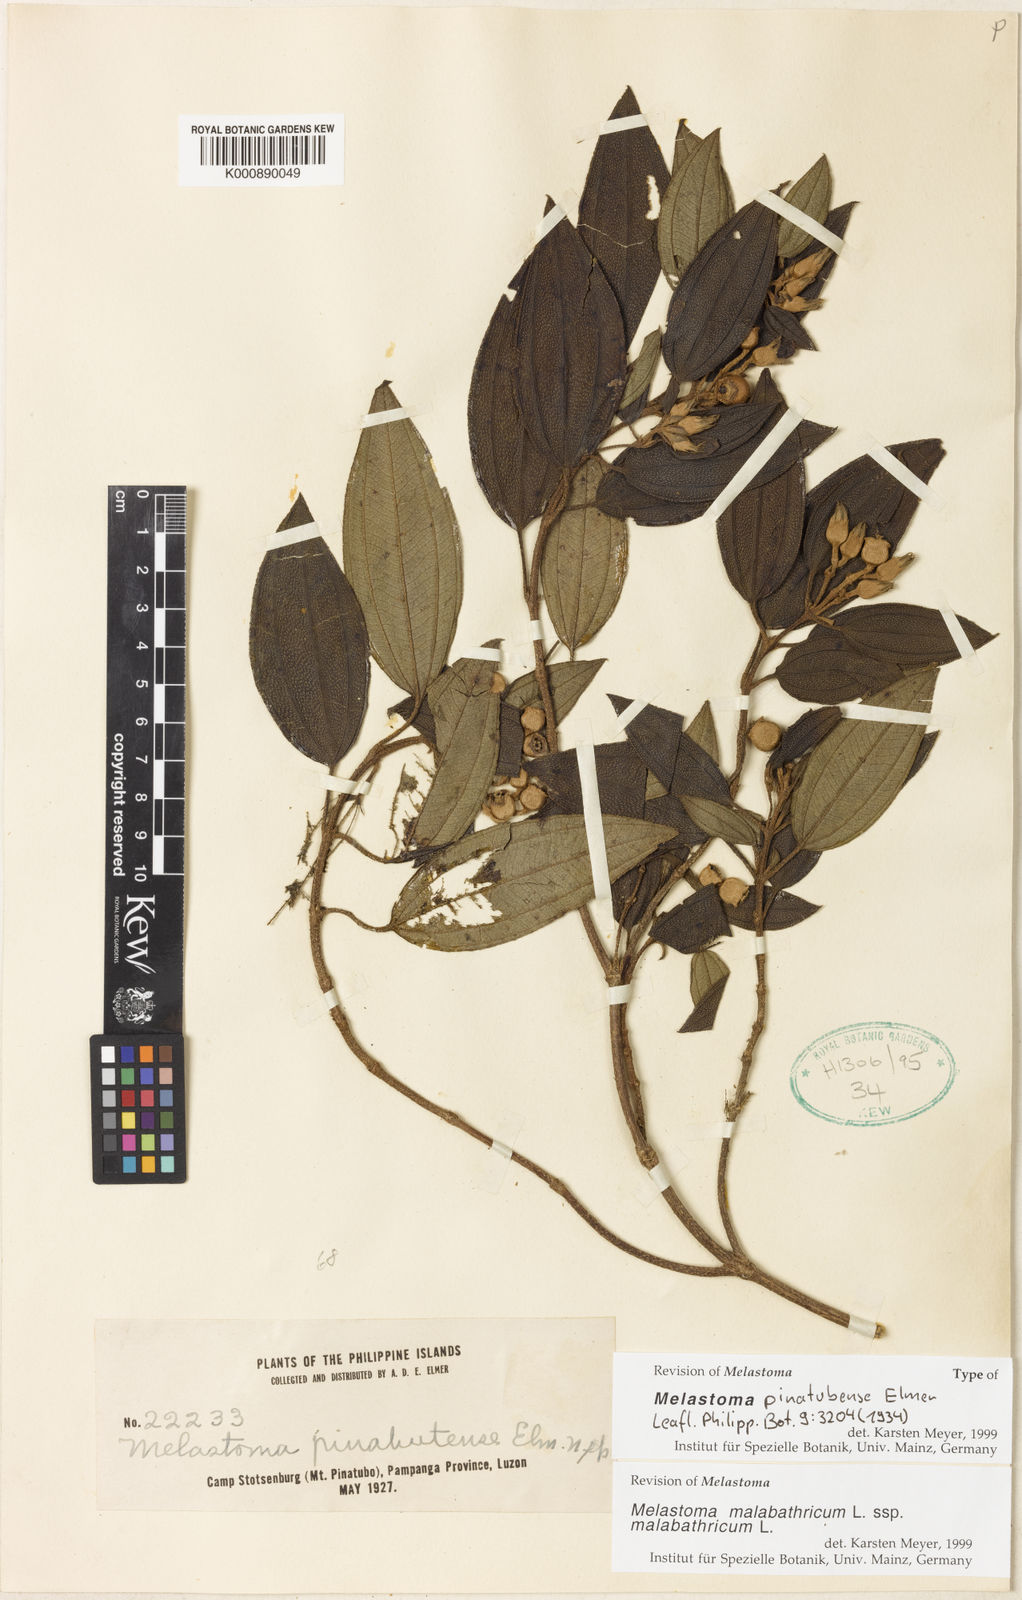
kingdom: Plantae
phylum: Tracheophyta
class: Magnoliopsida
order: Myrtales
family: Melastomataceae
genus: Melastoma
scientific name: Melastoma malabathricum
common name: Indian-rhododendron
